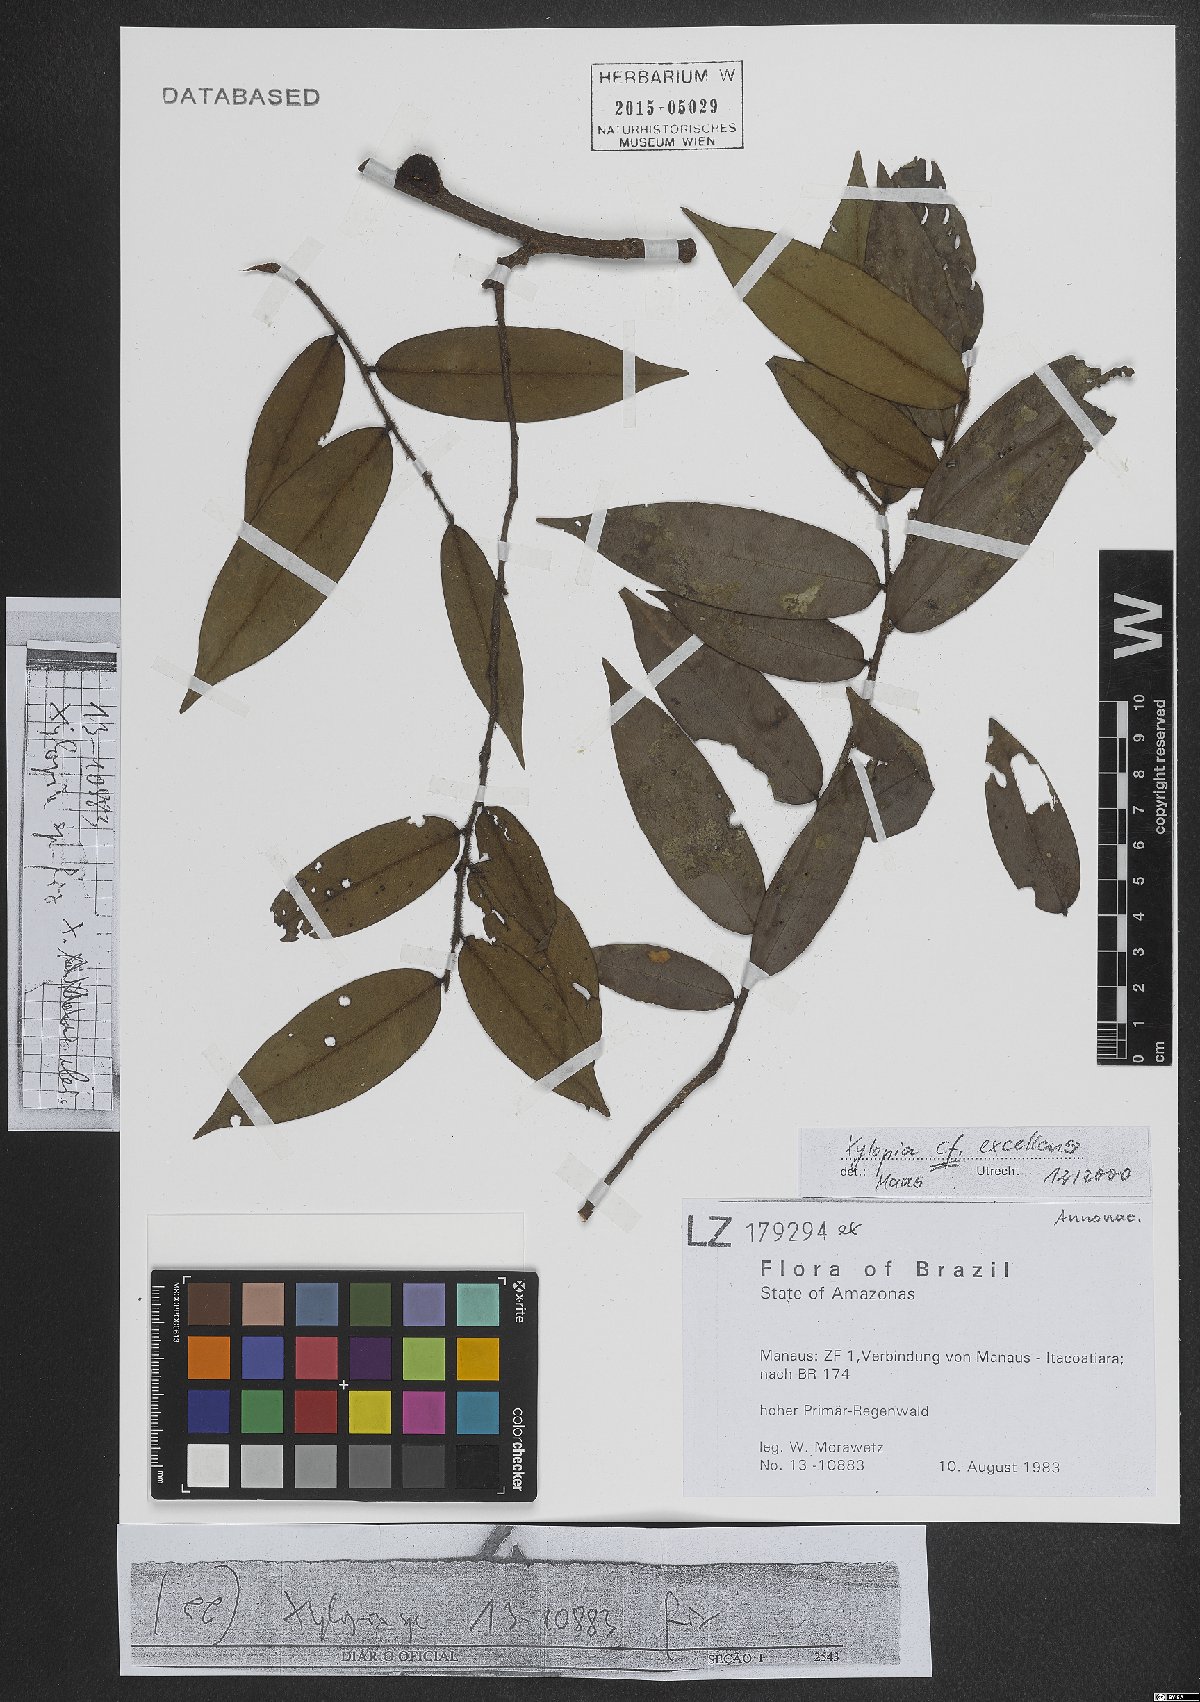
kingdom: Plantae
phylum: Tracheophyta
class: Magnoliopsida
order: Magnoliales
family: Annonaceae
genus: Xylopia
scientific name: Xylopia excellens
